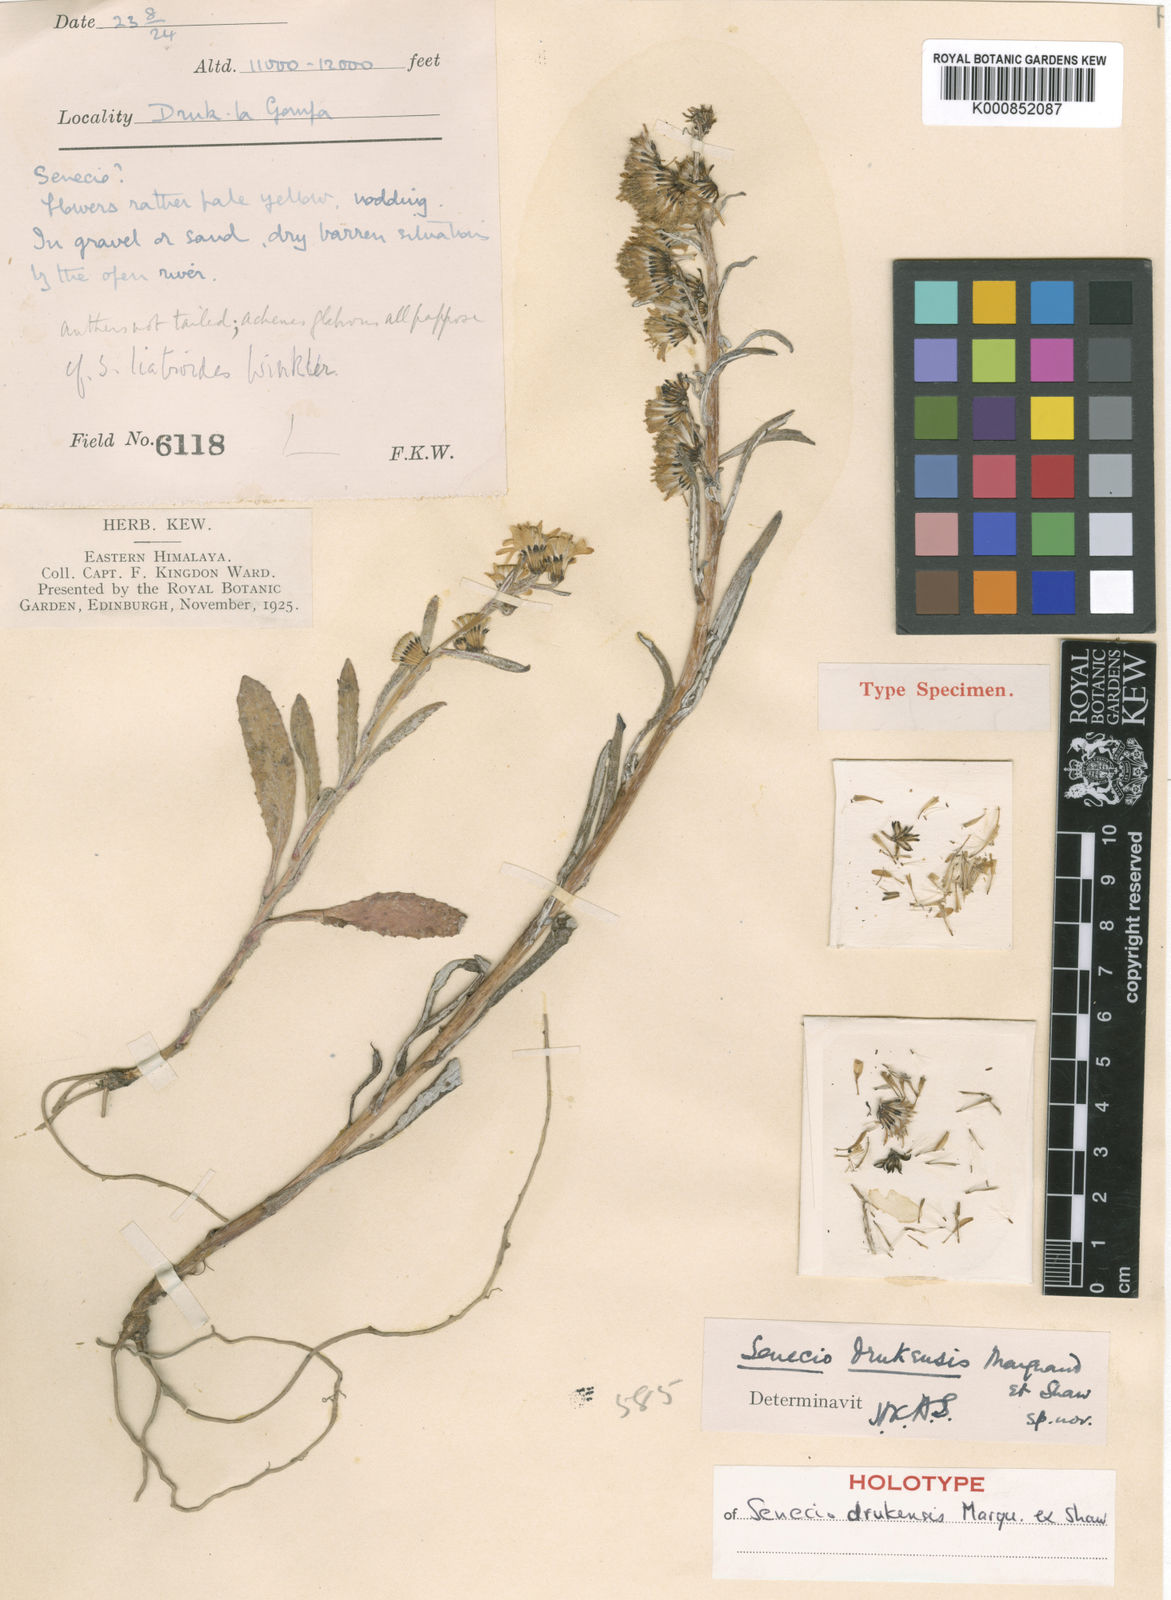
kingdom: Plantae
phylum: Tracheophyta
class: Magnoliopsida
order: Asterales
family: Asteraceae
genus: Senecio
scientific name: Senecio drukensis
